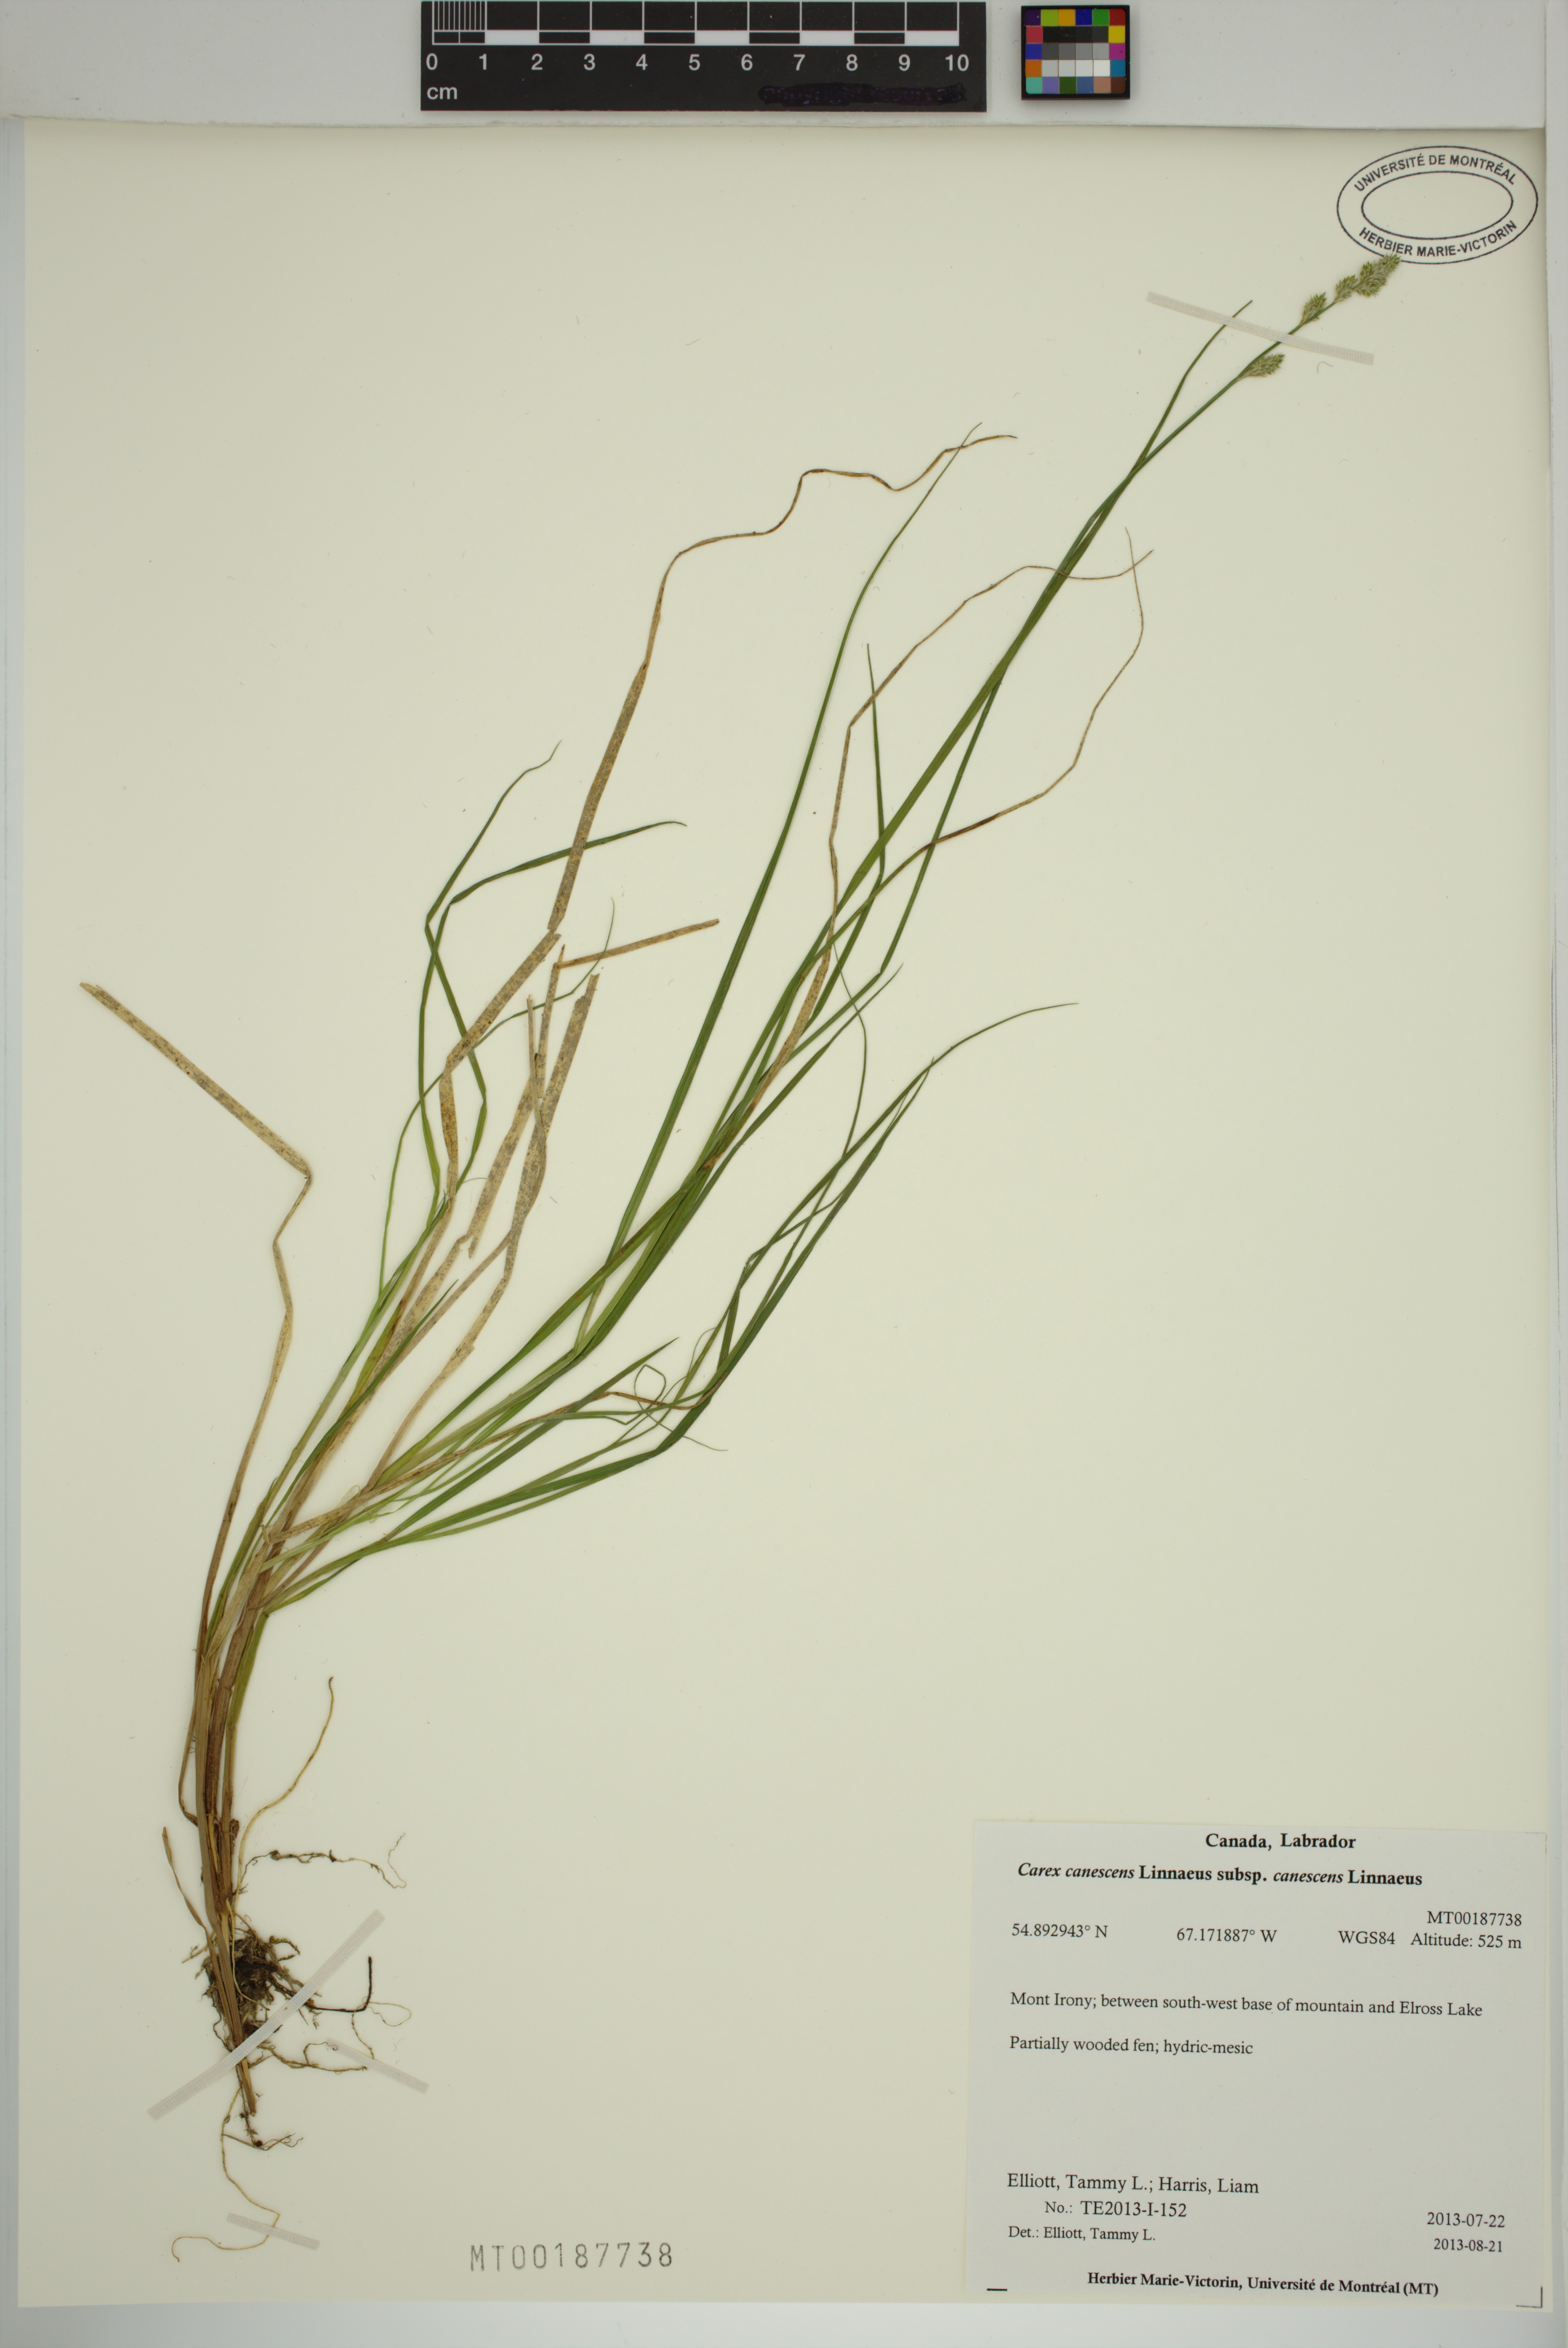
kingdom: Plantae
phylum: Tracheophyta
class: Liliopsida
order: Poales
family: Cyperaceae
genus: Carex
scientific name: Carex canescens
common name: White sedge
